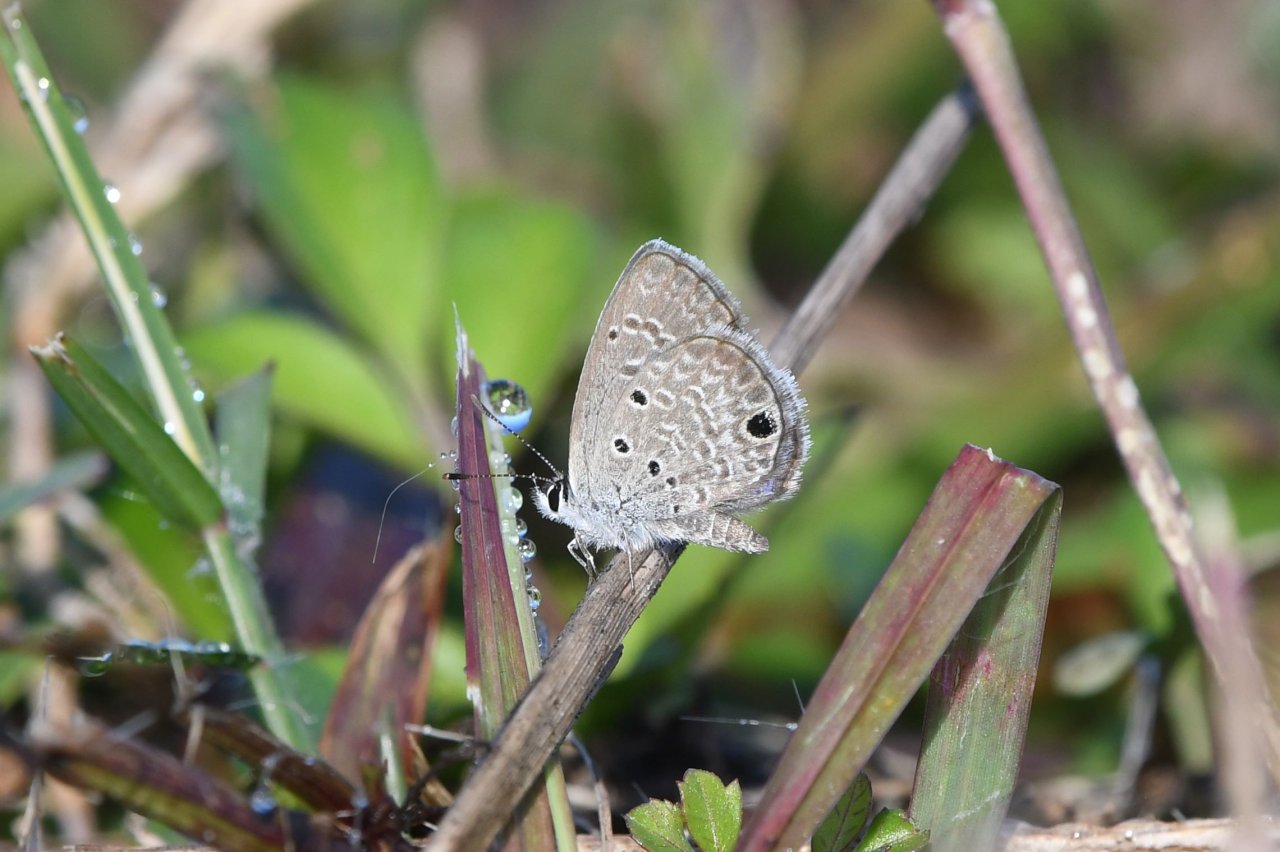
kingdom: Animalia
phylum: Arthropoda
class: Insecta
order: Lepidoptera
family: Lycaenidae
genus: Hemiargus
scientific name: Hemiargus ceraunus
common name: Ceraunus Blue
